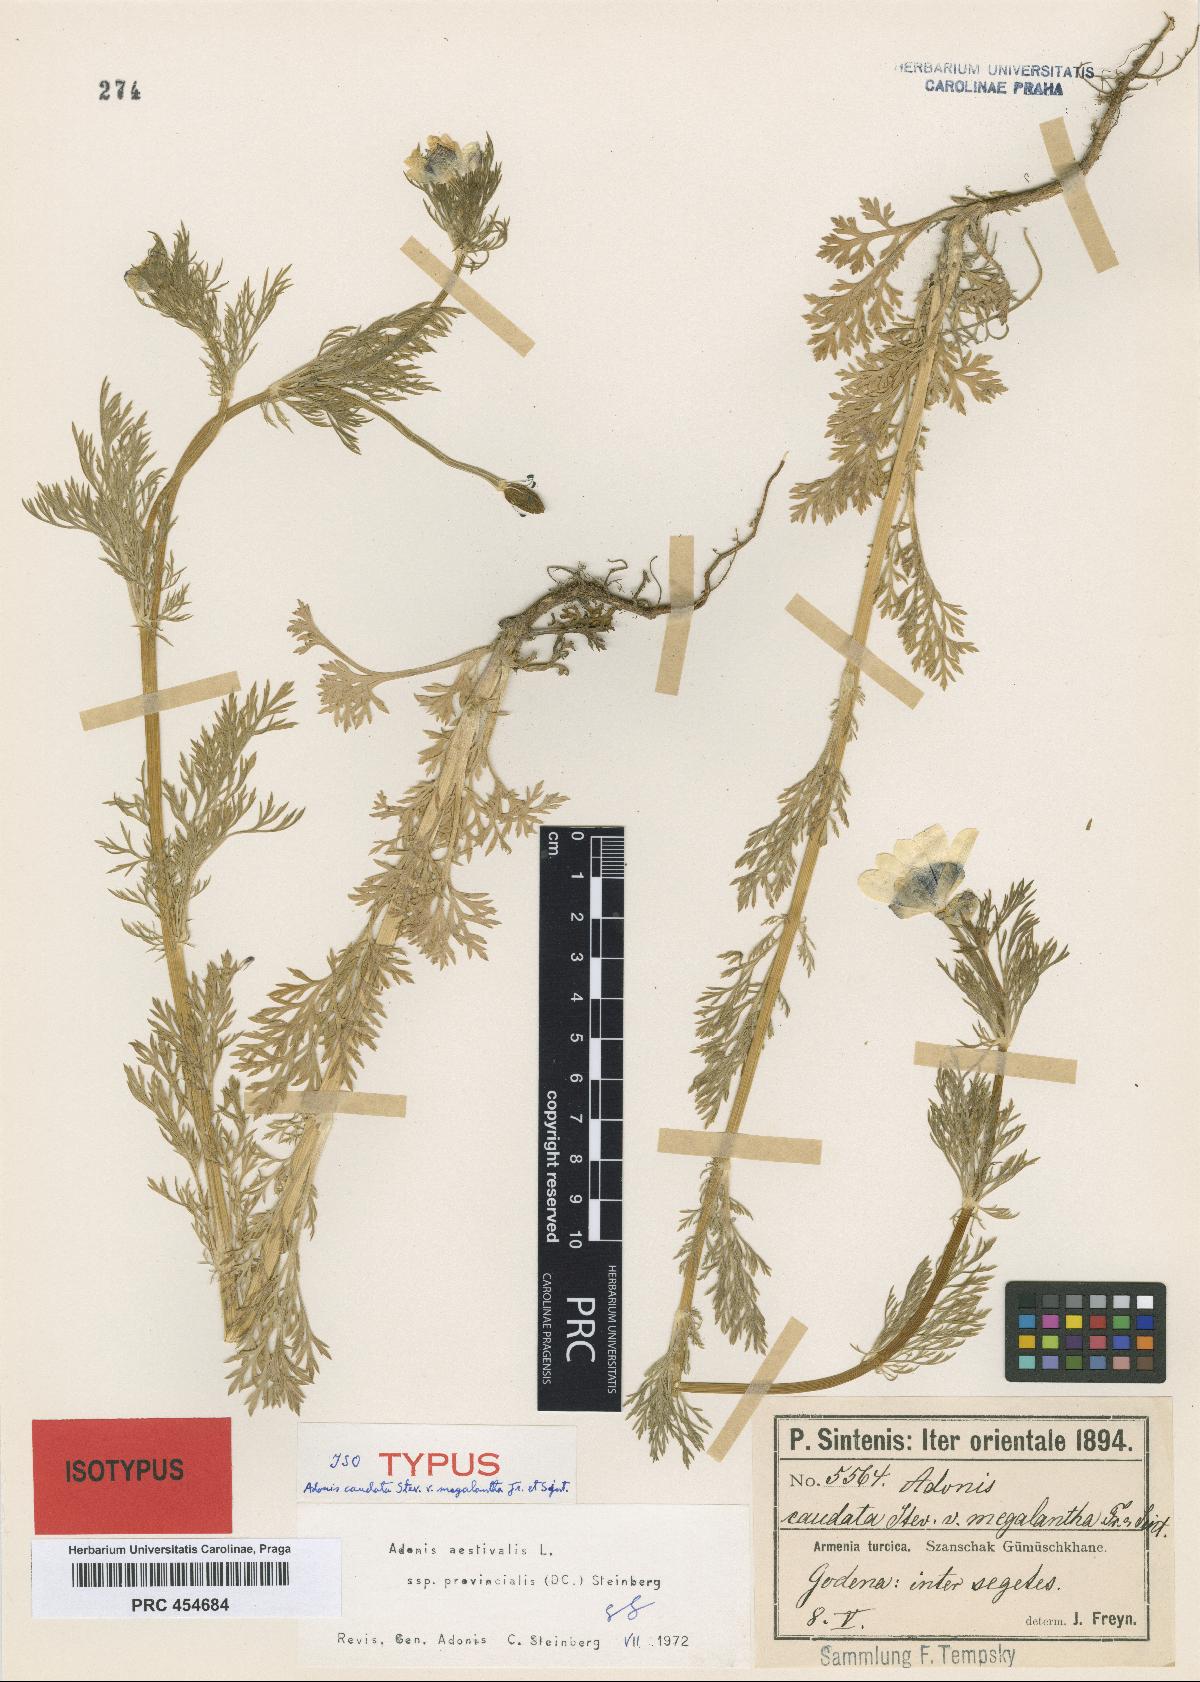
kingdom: Plantae
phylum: Tracheophyta
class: Magnoliopsida
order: Ranunculales
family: Ranunculaceae
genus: Adonis
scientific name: Adonis flammea
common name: Large pheasant's-eye
